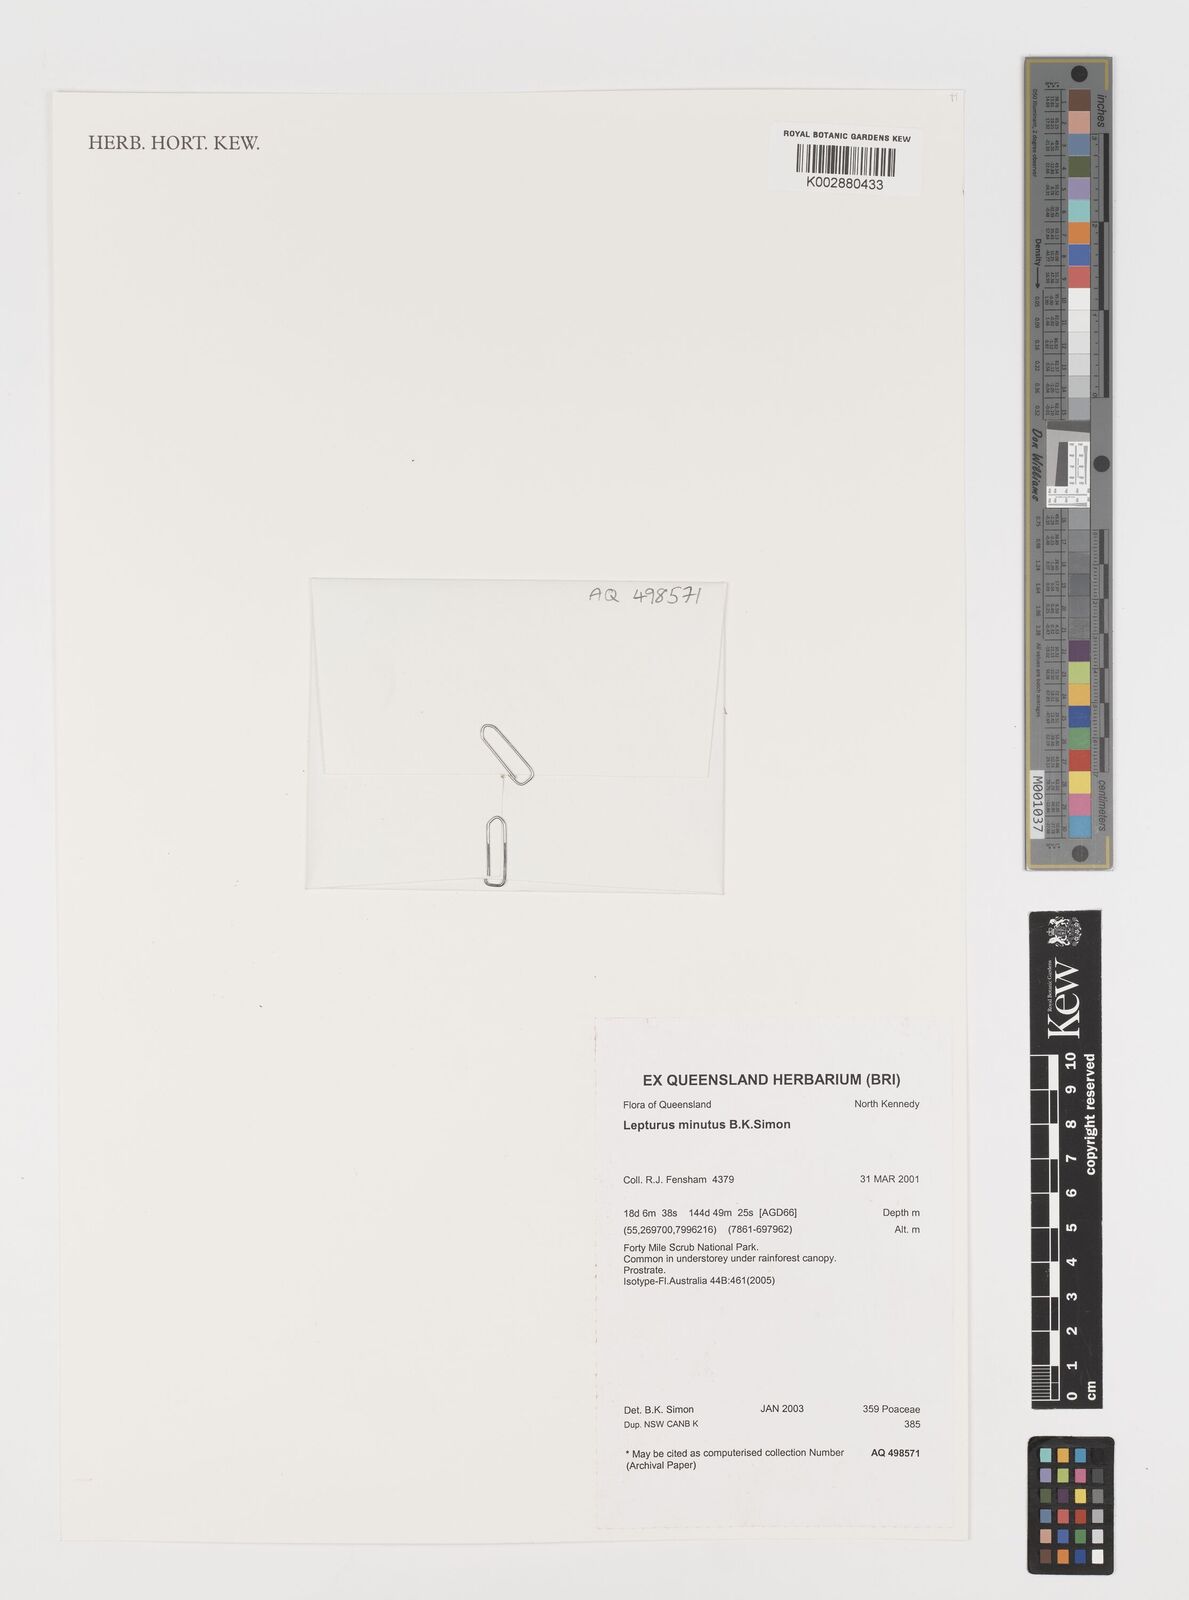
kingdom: Plantae
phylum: Tracheophyta
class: Liliopsida
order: Poales
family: Poaceae
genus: Lepturus
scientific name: Lepturus minutus
